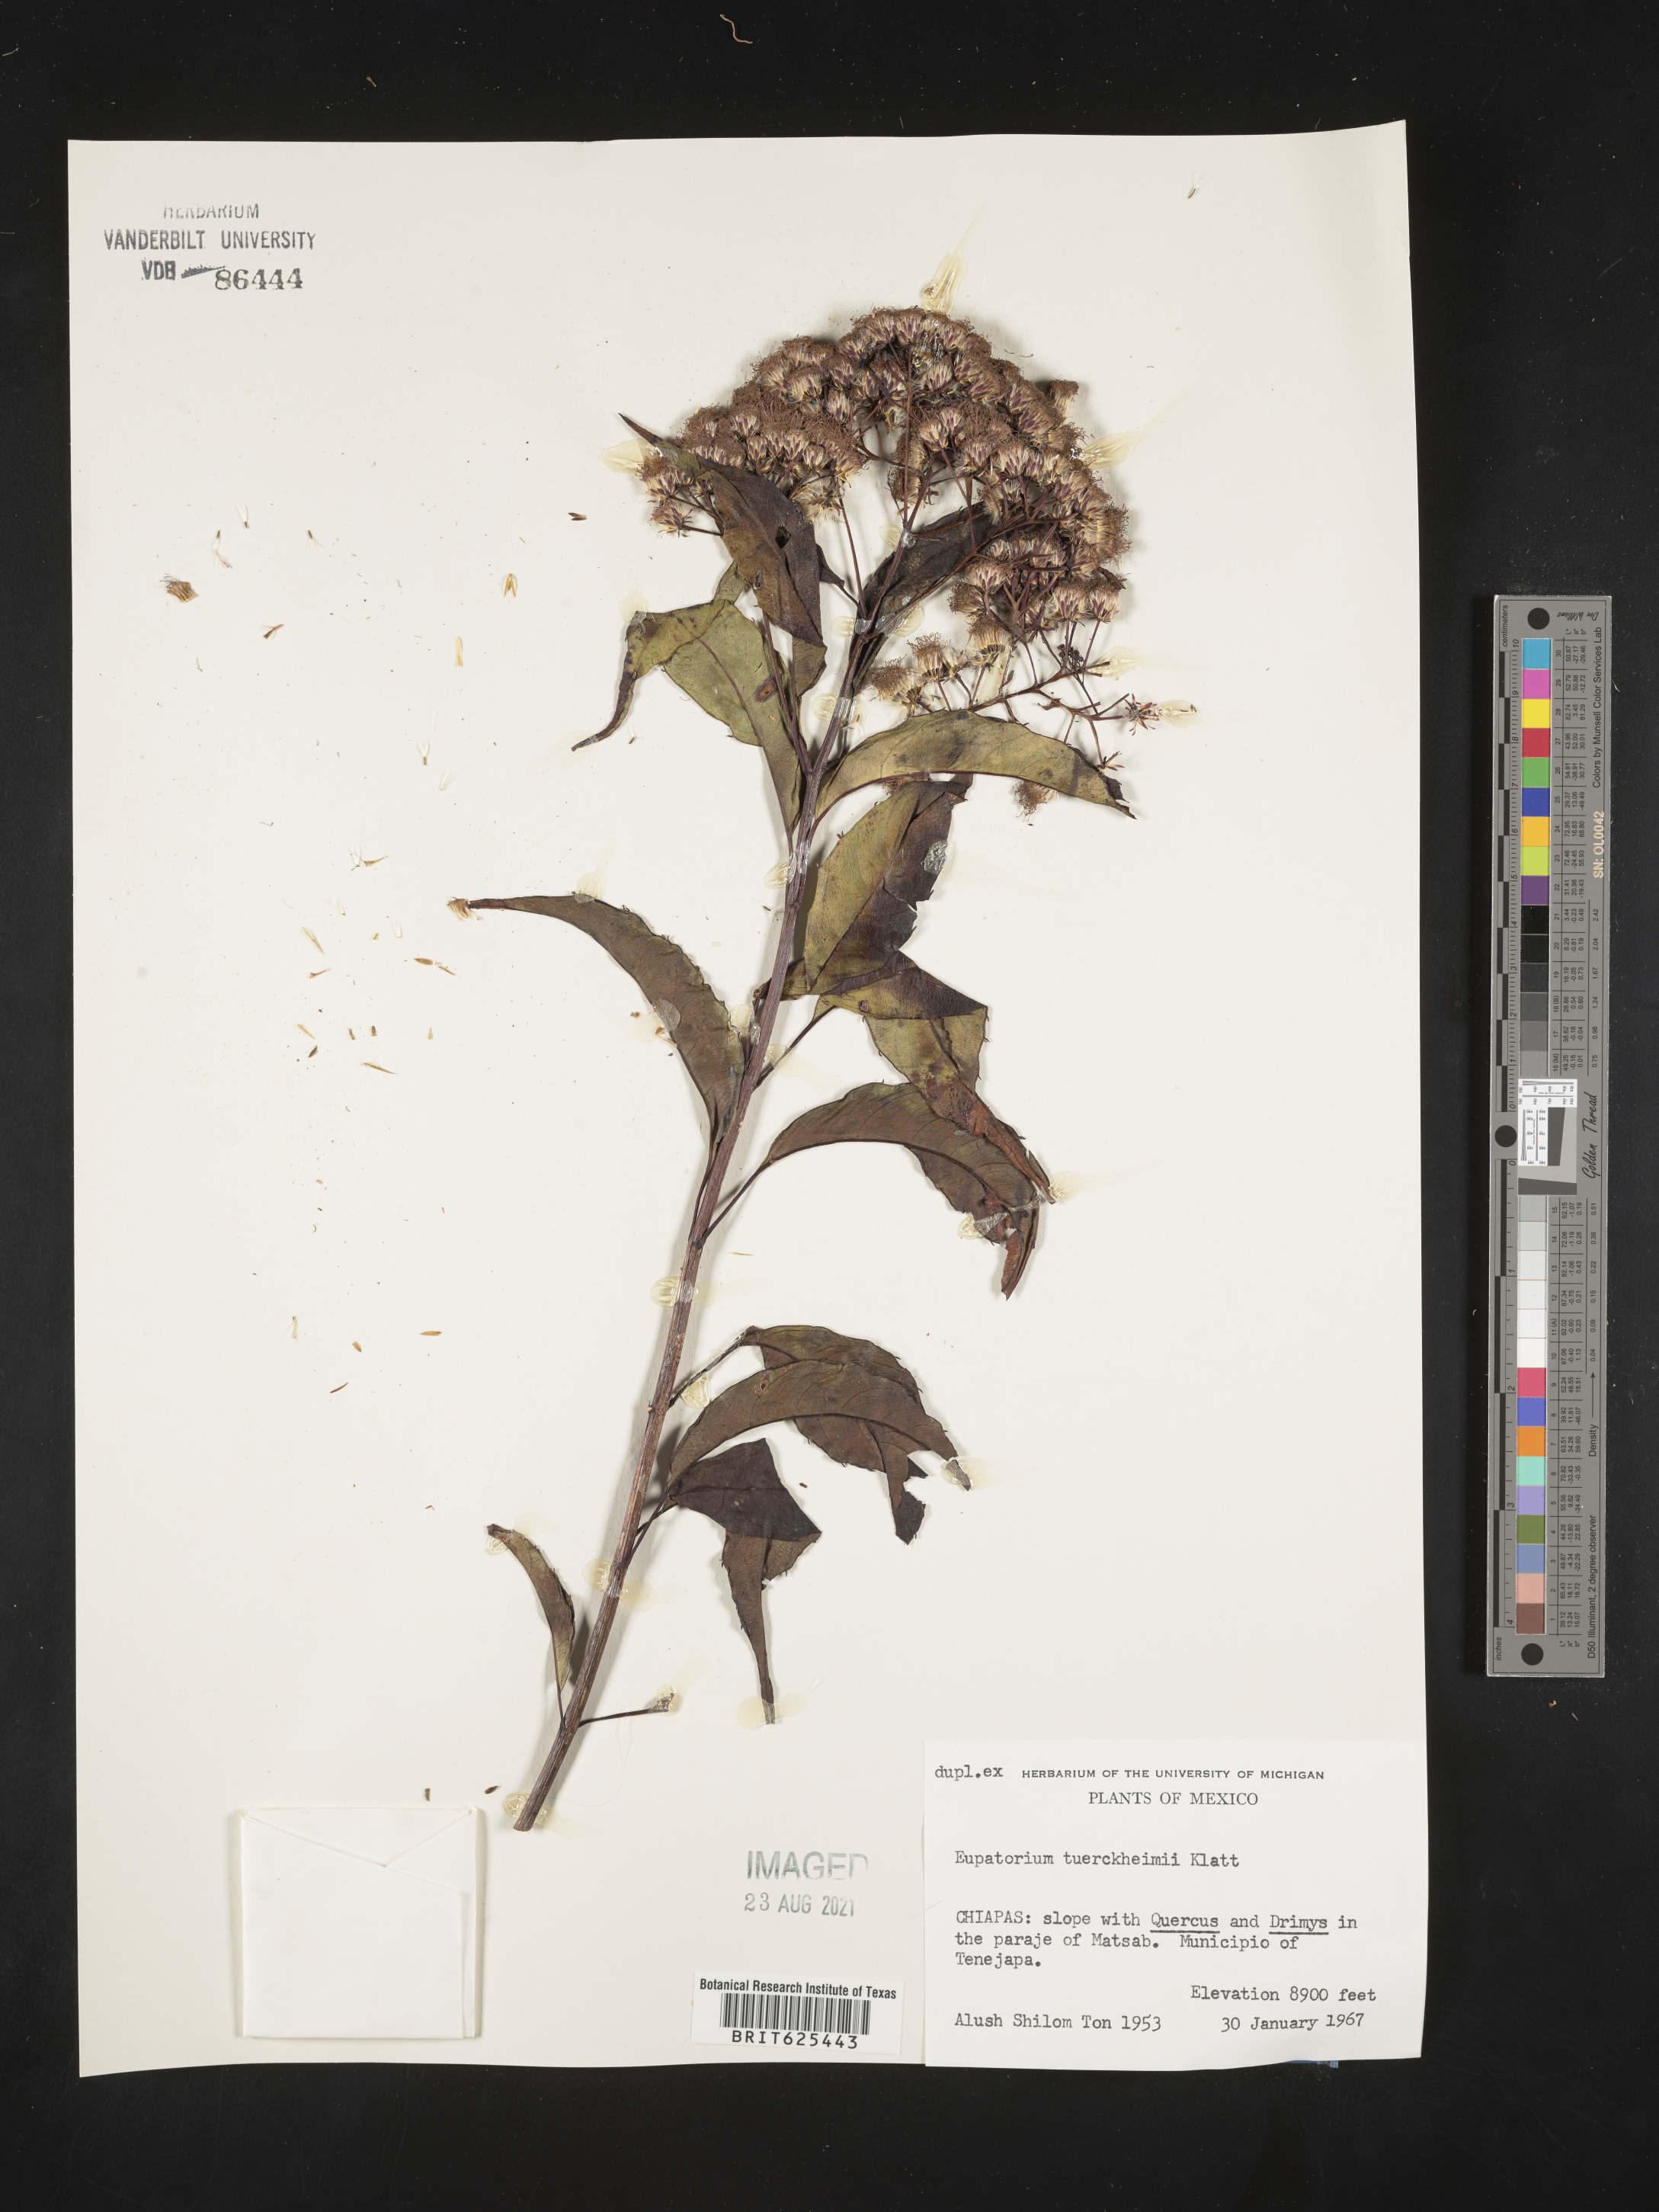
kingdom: Plantae
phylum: Tracheophyta
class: Magnoliopsida
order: Asterales
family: Asteraceae
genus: Bartlettina
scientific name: Bartlettina tuerckheimii
